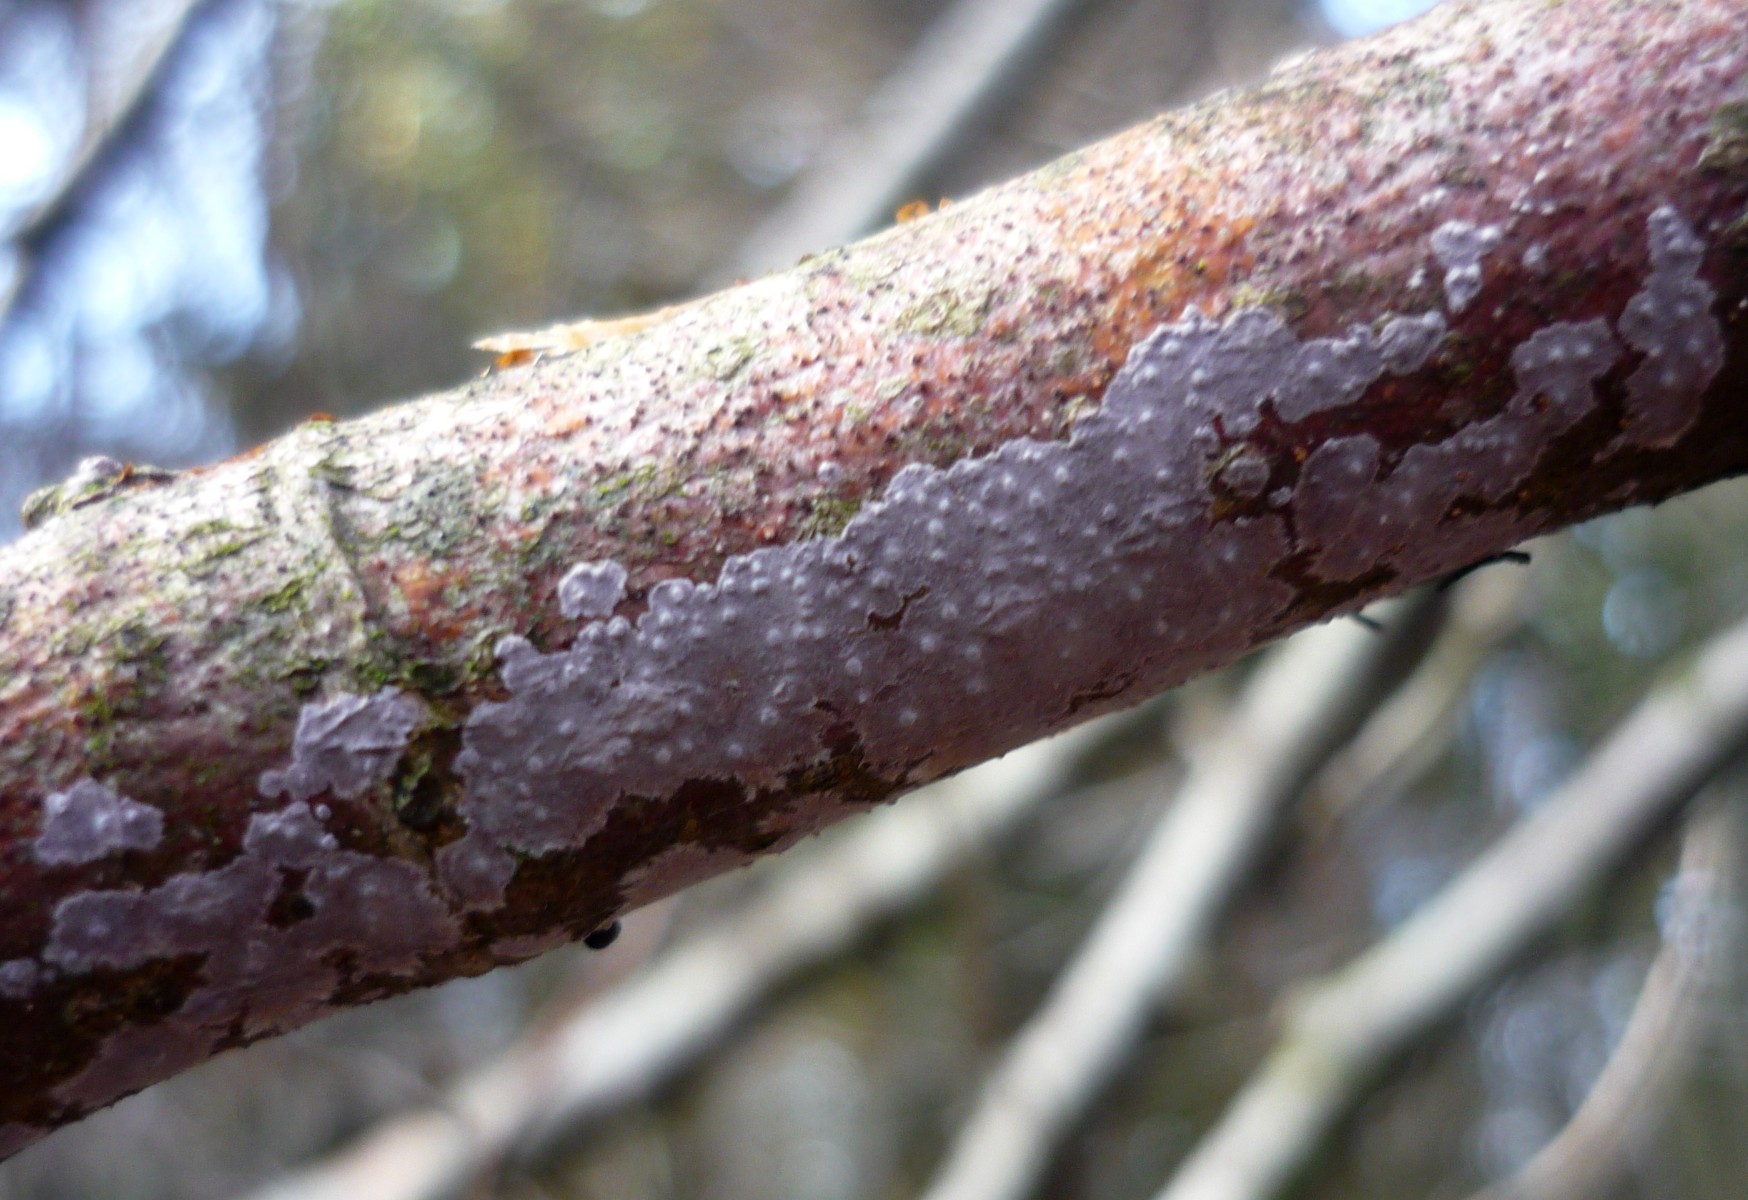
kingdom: Fungi
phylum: Basidiomycota
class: Agaricomycetes
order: Russulales
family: Peniophoraceae
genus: Peniophora
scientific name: Peniophora lycii
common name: grynet voksskind
